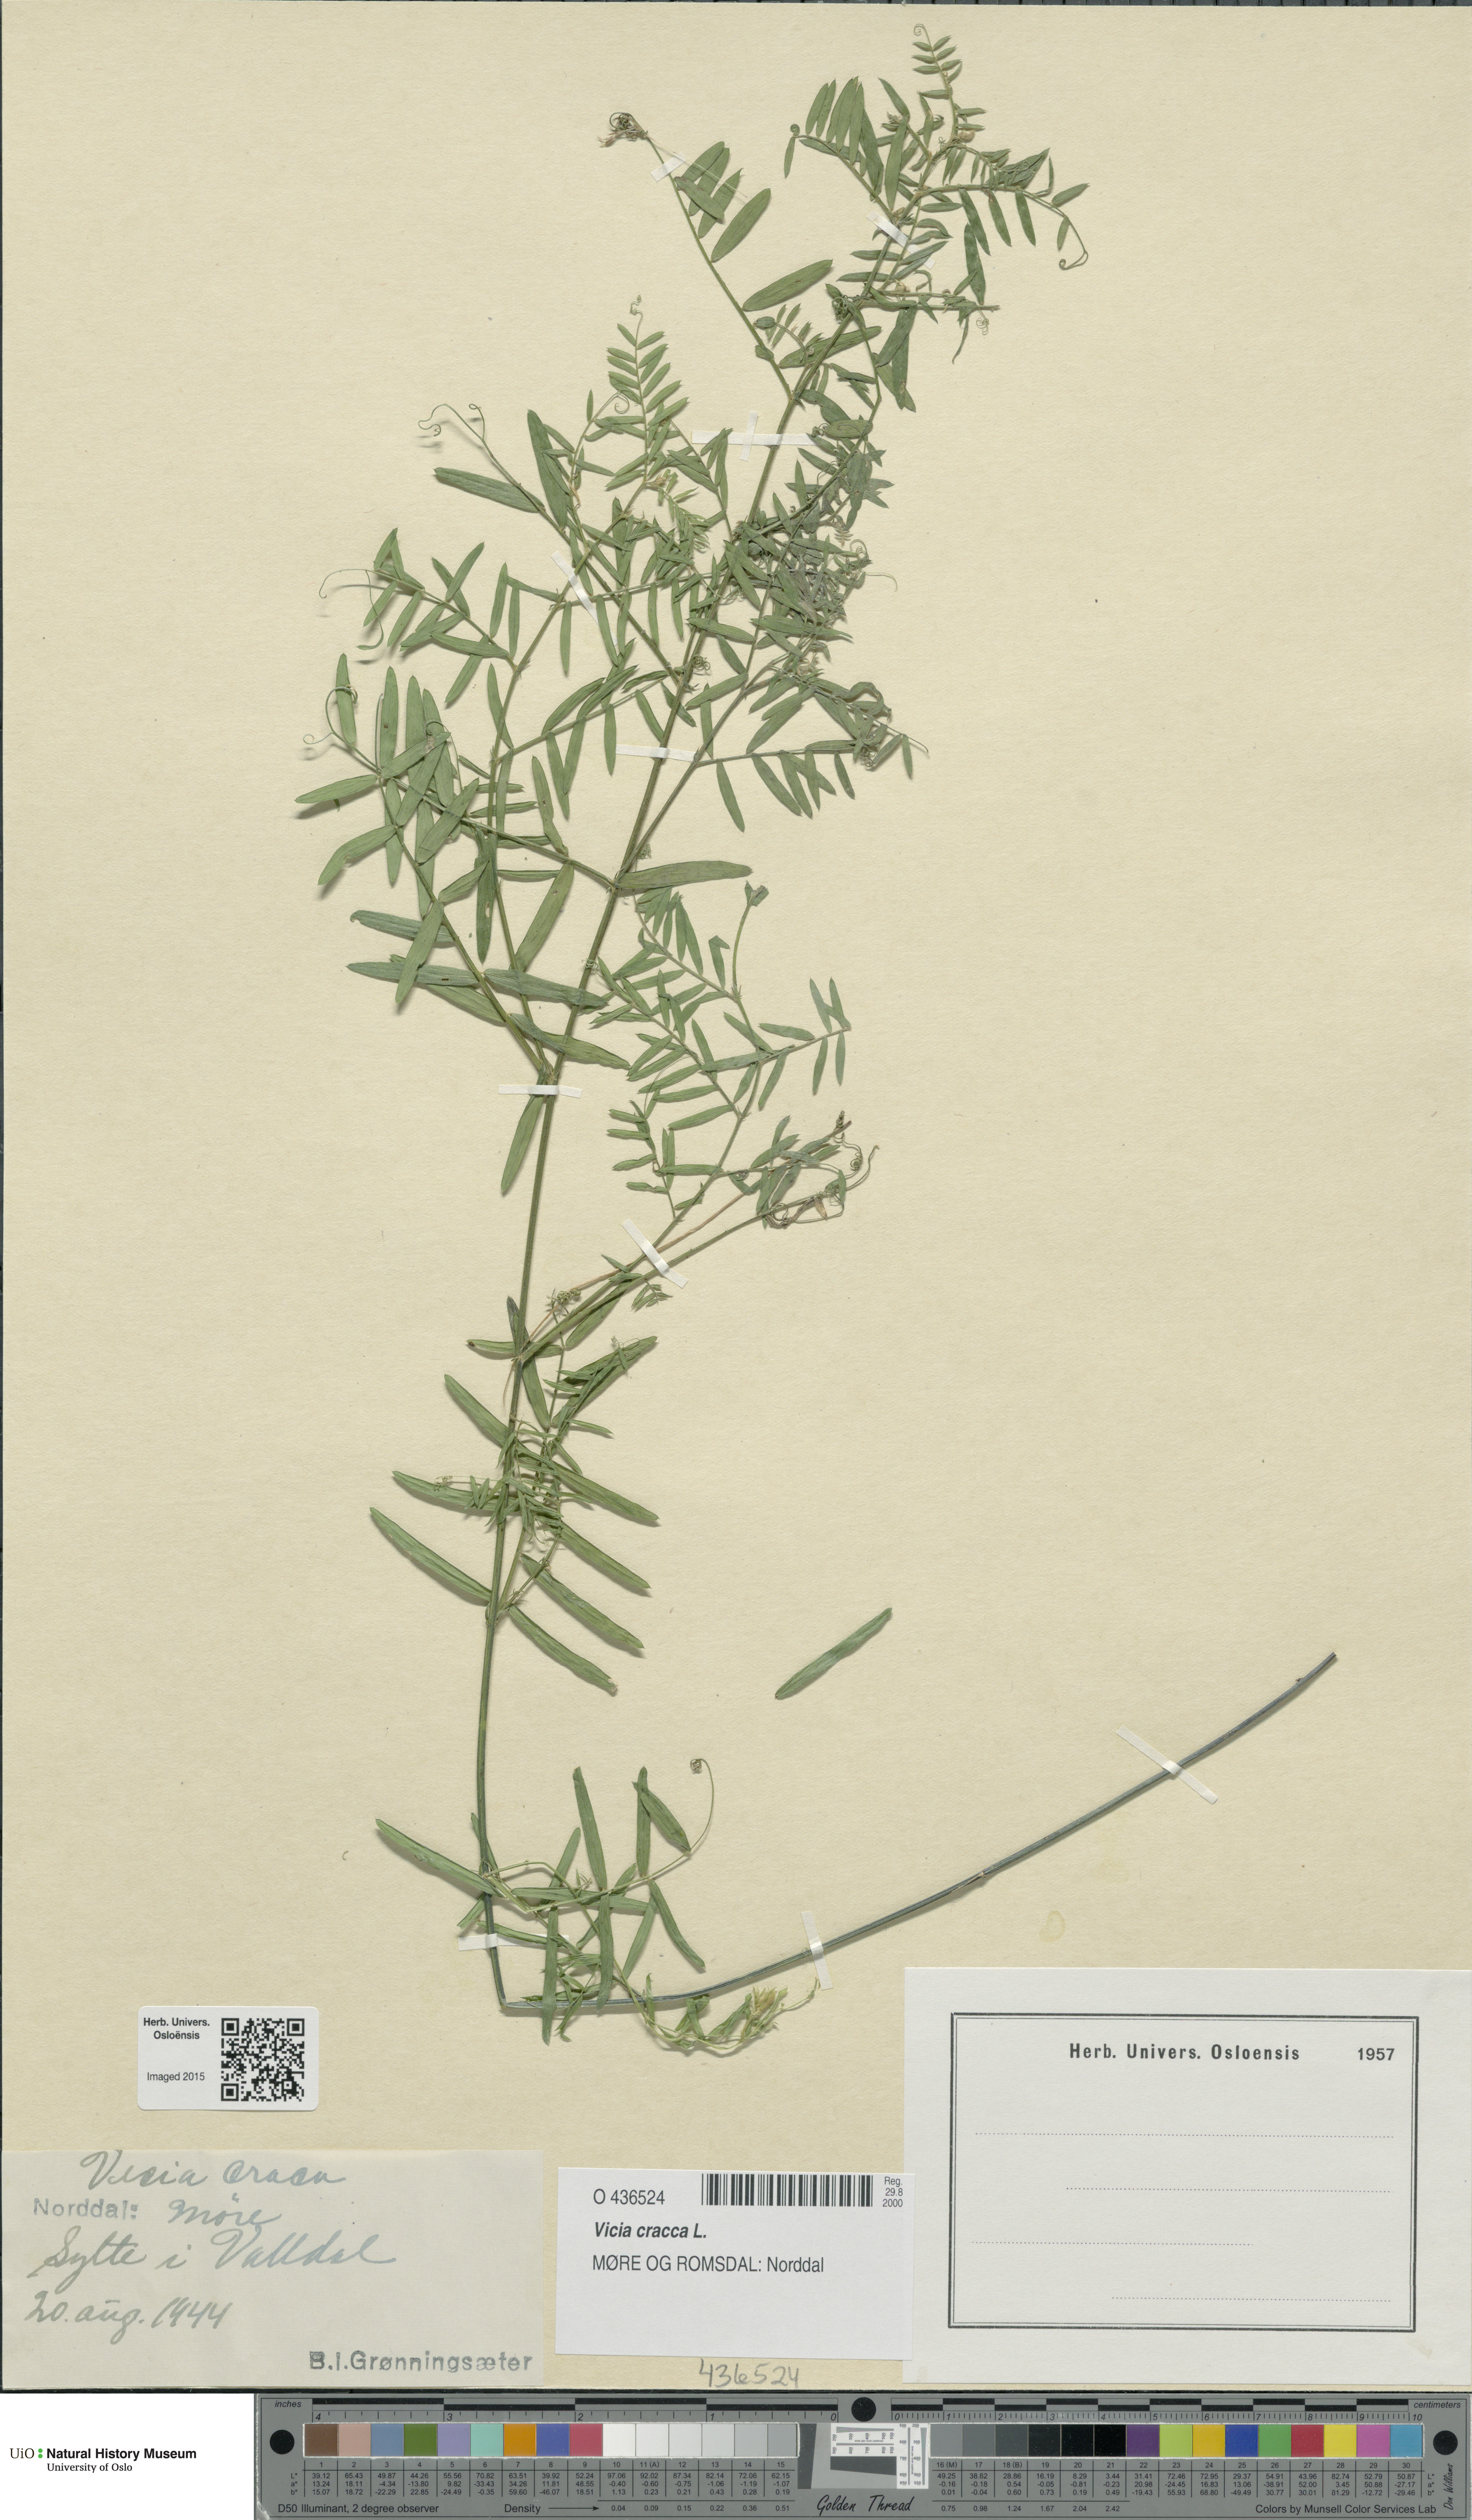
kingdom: Plantae
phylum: Tracheophyta
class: Magnoliopsida
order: Fabales
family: Fabaceae
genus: Vicia
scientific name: Vicia cracca
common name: Bird vetch
